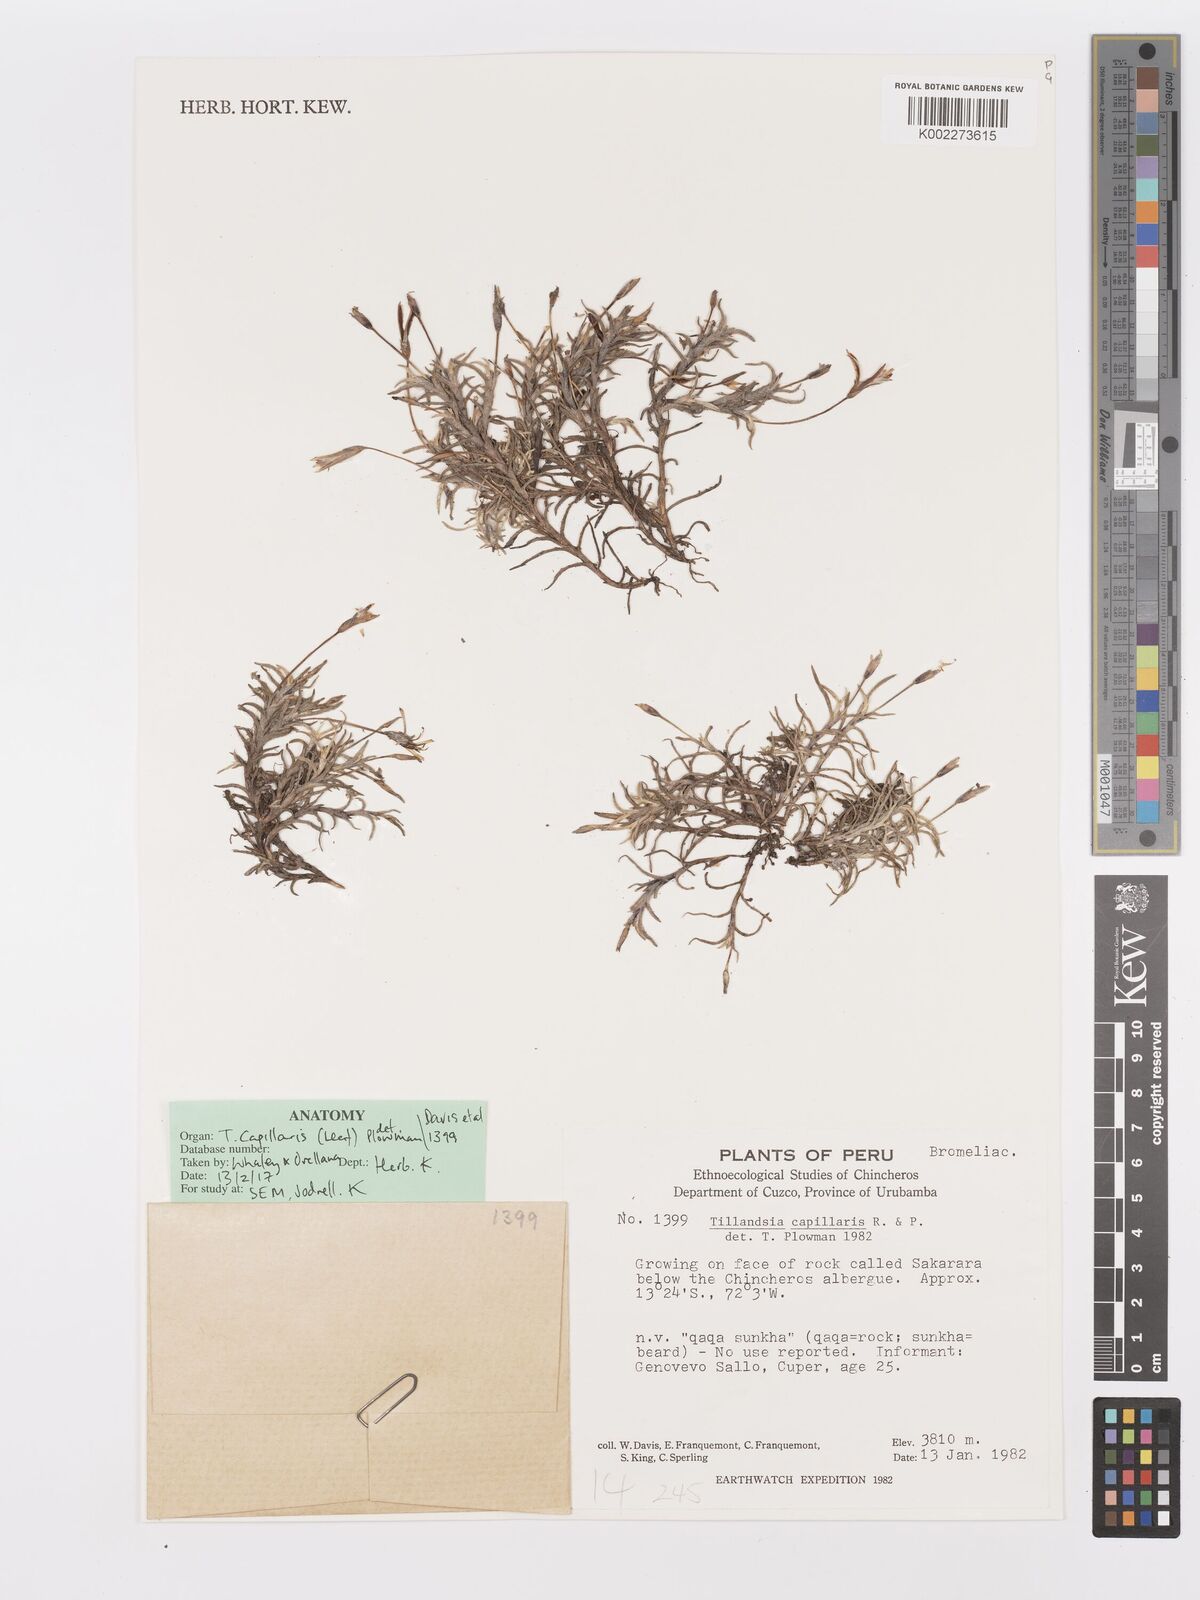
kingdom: Plantae
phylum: Tracheophyta
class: Liliopsida
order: Poales
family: Bromeliaceae
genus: Tillandsia
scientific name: Tillandsia capillaris
